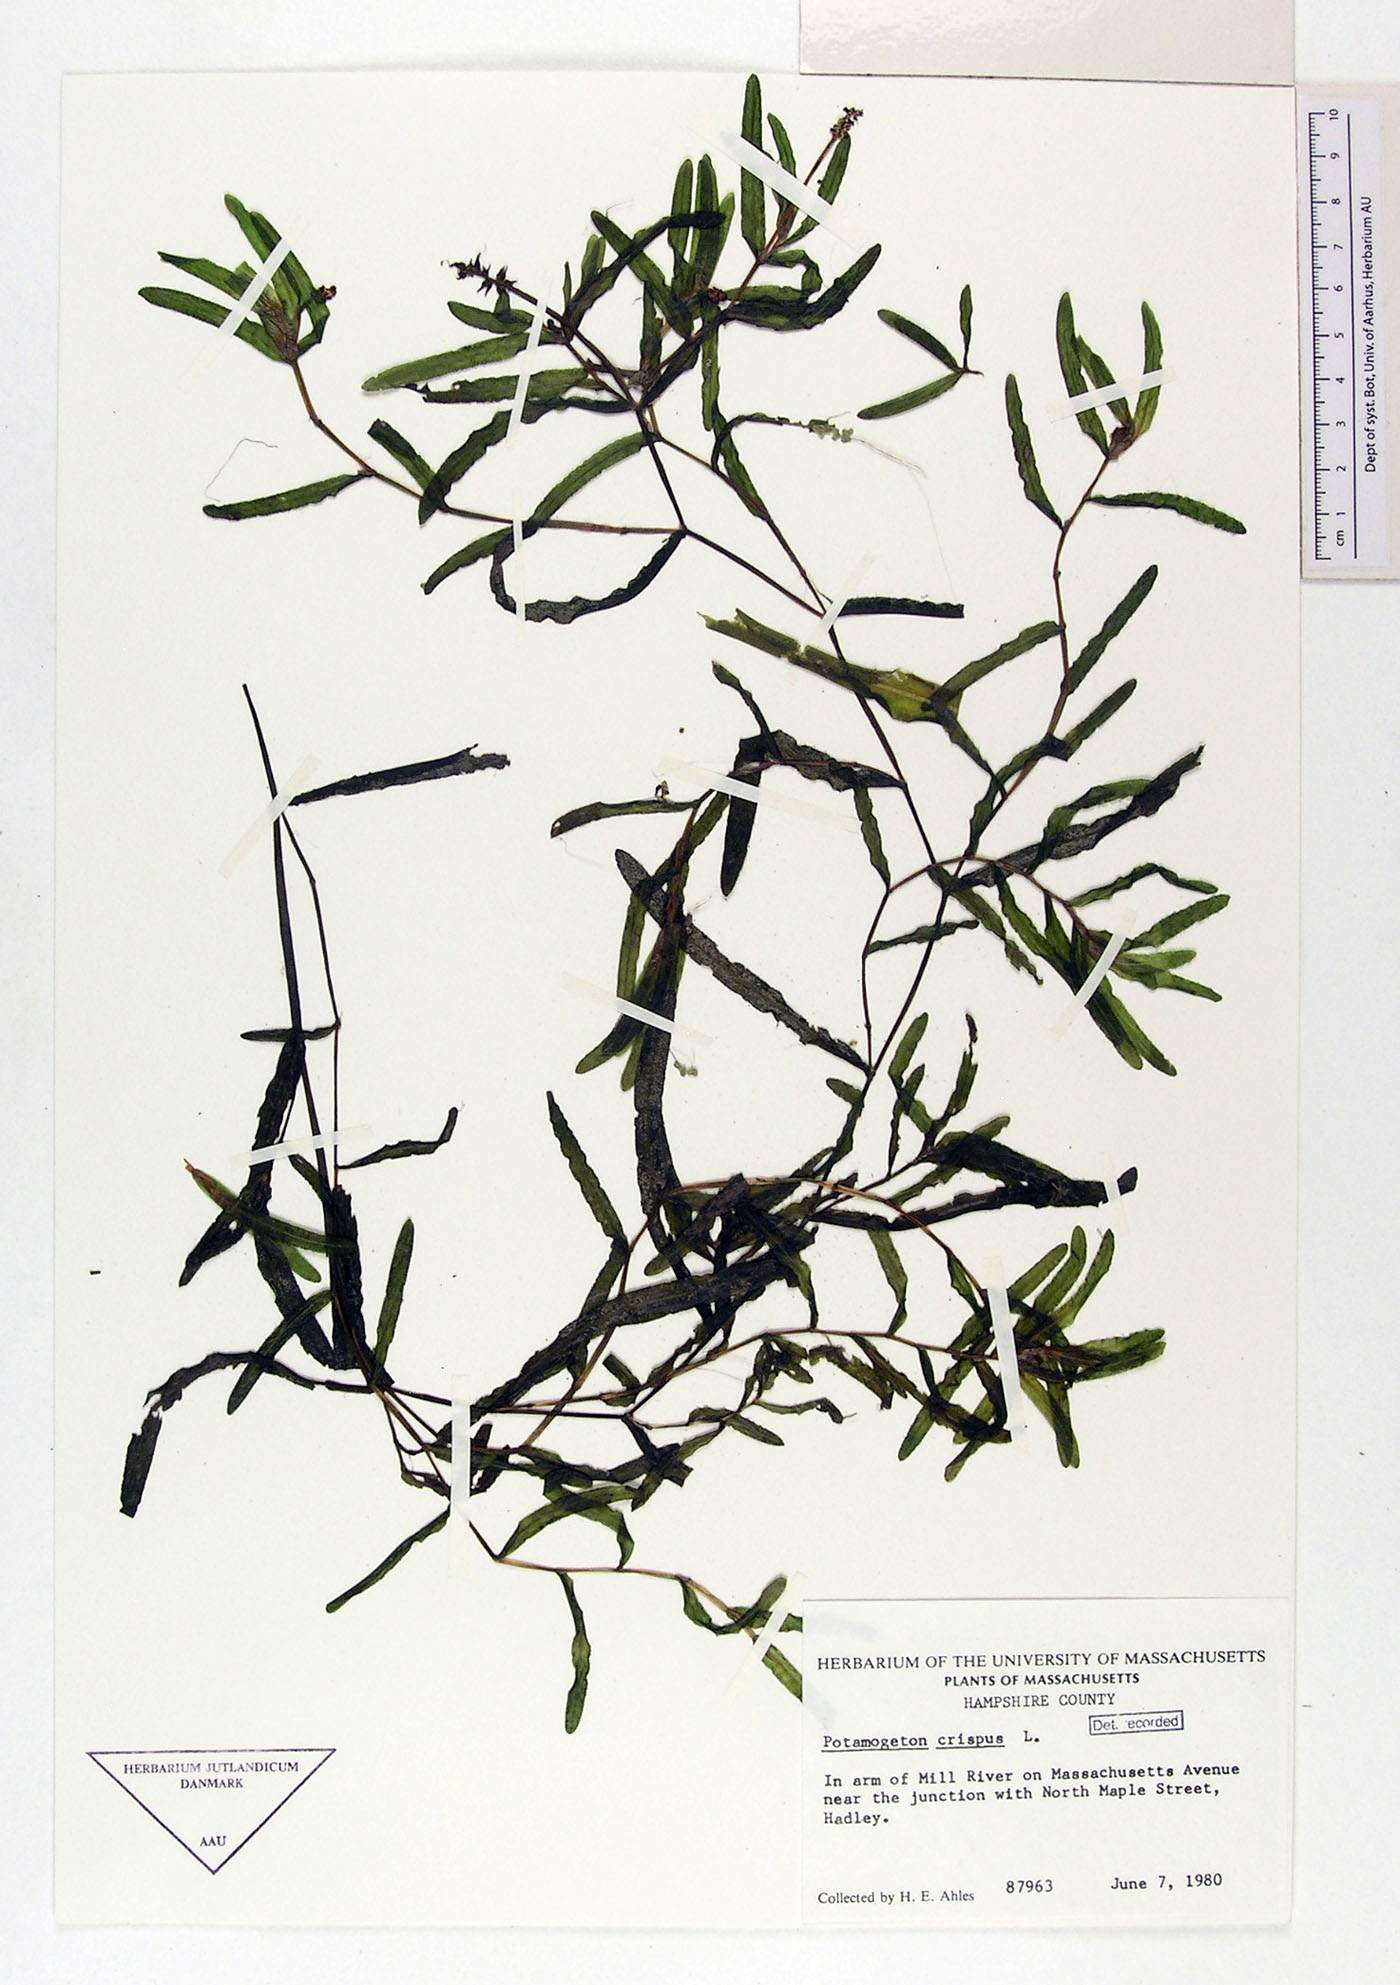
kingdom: Plantae
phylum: Tracheophyta
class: Liliopsida
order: Alismatales
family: Potamogetonaceae
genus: Potamogeton
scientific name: Potamogeton crispus
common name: Curled pondweed
